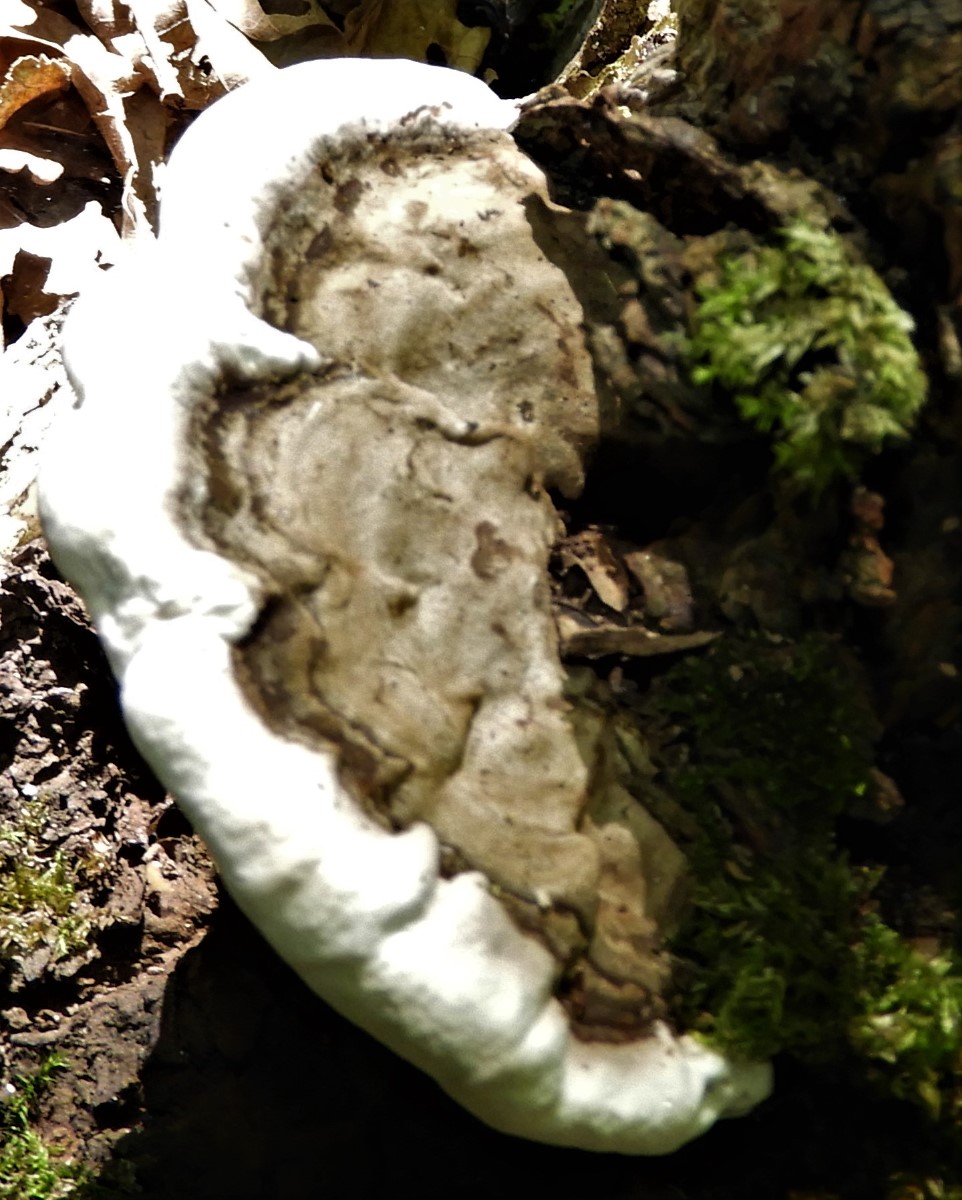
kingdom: Fungi
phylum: Basidiomycota
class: Agaricomycetes
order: Polyporales
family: Polyporaceae
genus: Ganoderma
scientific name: Ganoderma applanatum
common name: flad lakporesvamp
